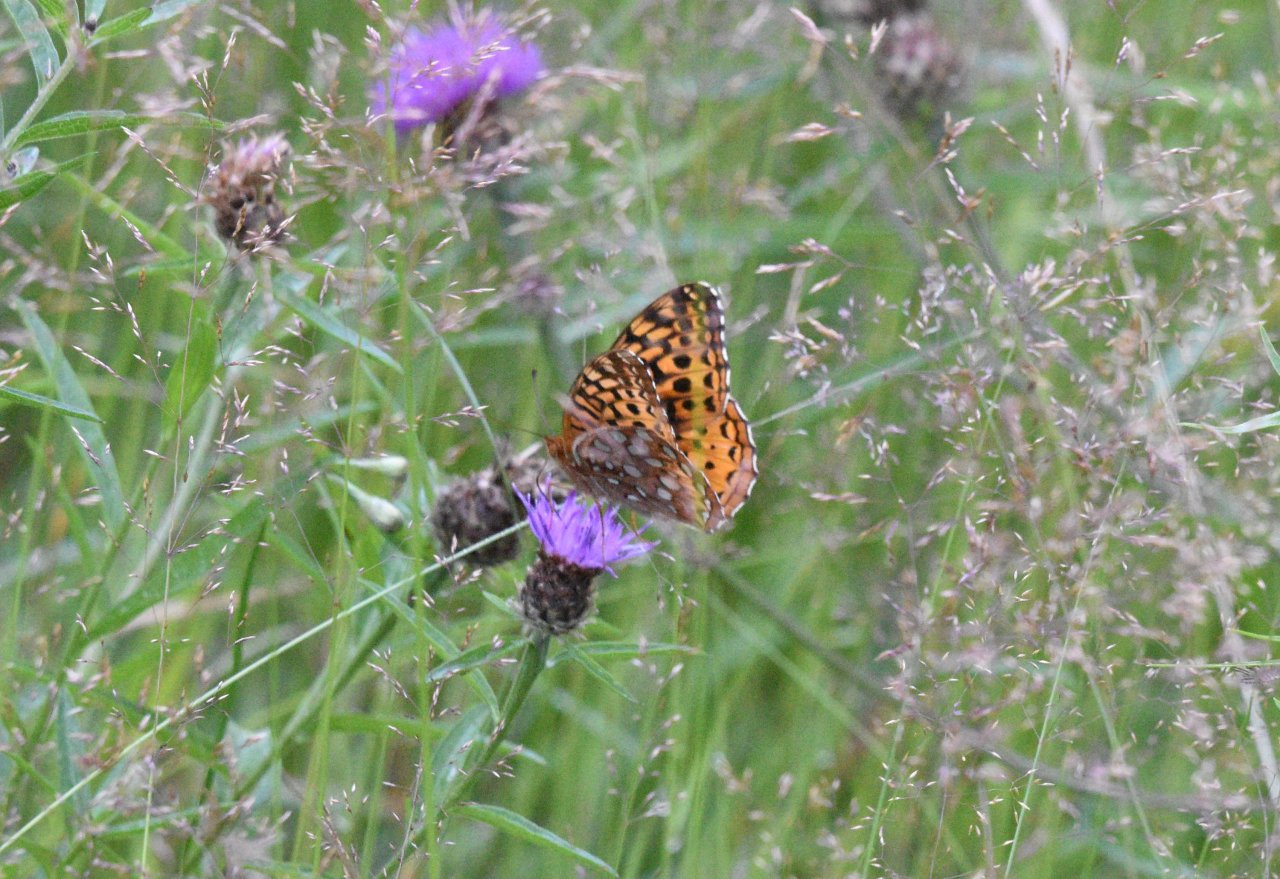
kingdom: Animalia
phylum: Arthropoda
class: Insecta
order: Lepidoptera
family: Nymphalidae
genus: Speyeria
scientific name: Speyeria cybele
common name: Great Spangled Fritillary
